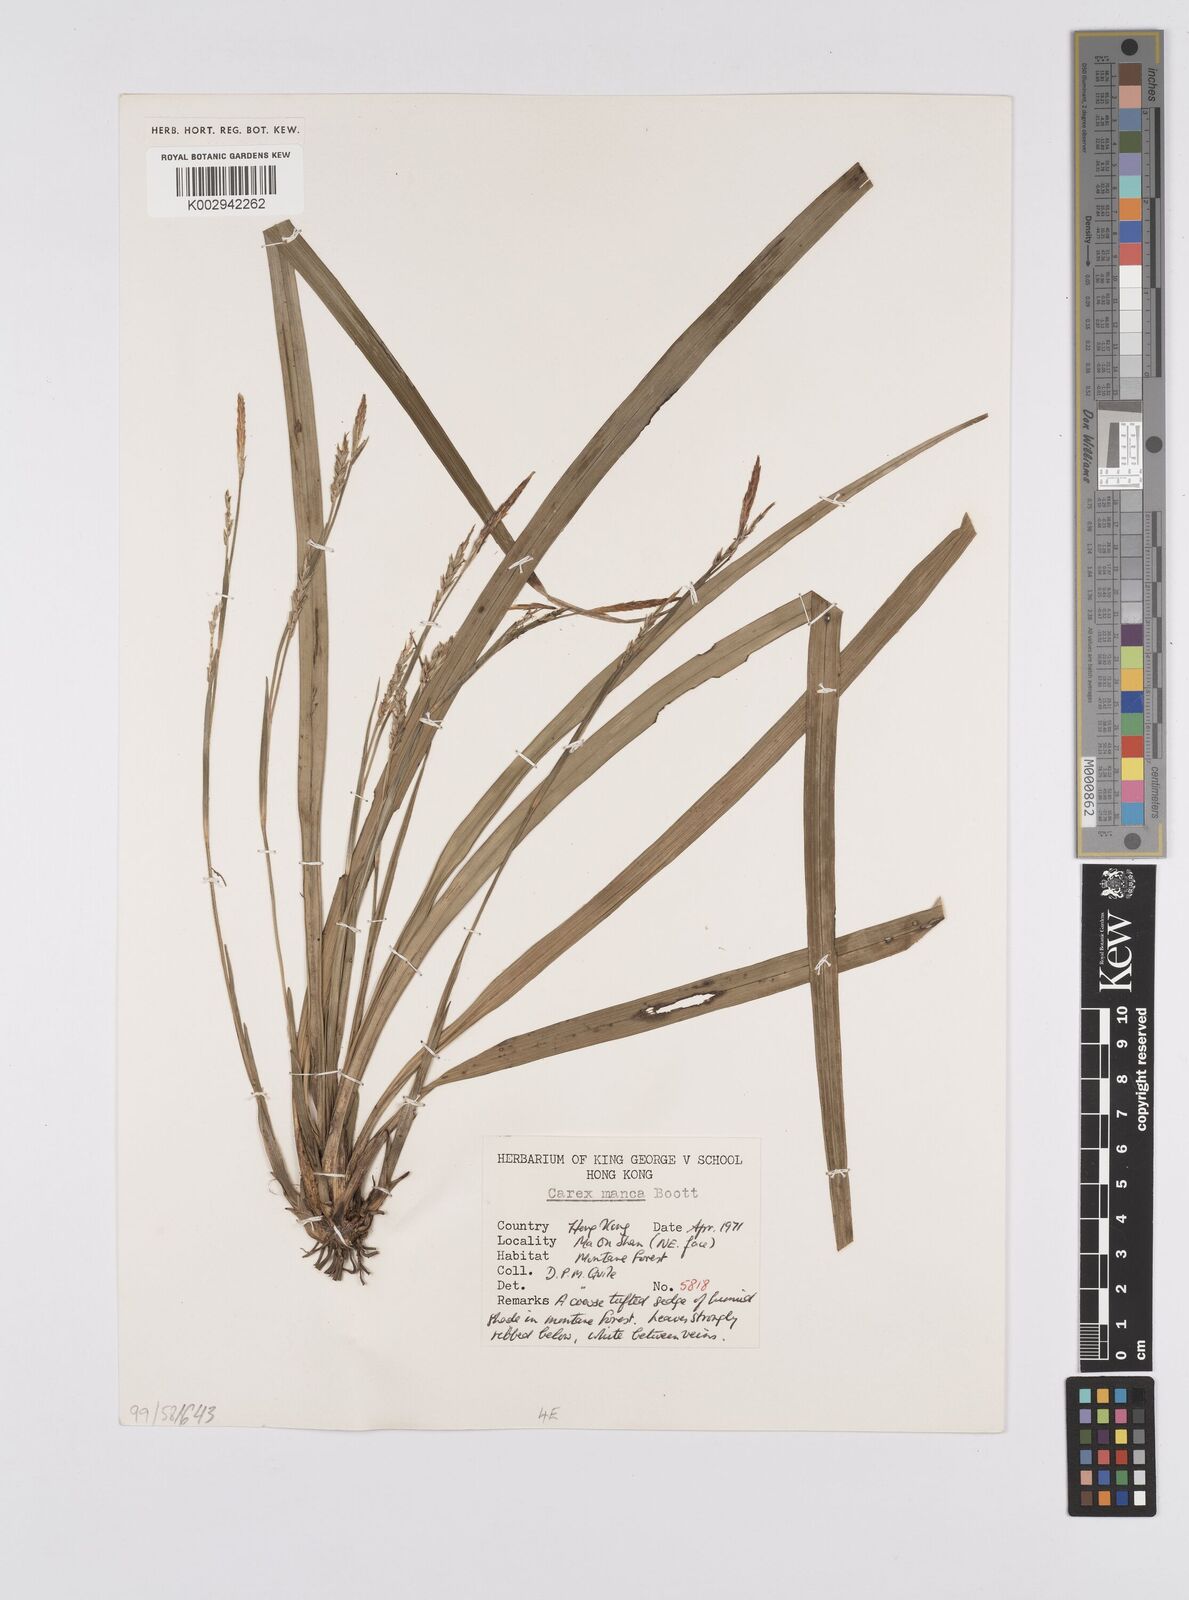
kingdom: Plantae
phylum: Tracheophyta
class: Liliopsida
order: Poales
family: Cyperaceae
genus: Carex
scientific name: Carex manca
